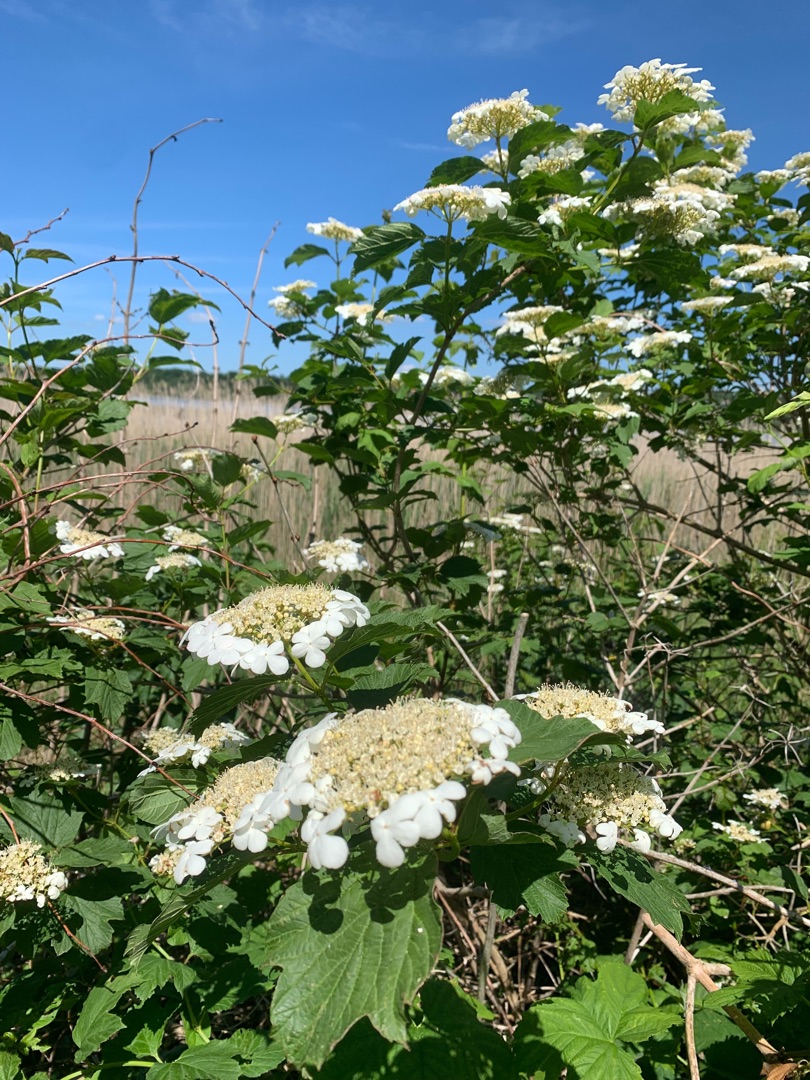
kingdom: Plantae
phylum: Tracheophyta
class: Magnoliopsida
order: Dipsacales
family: Viburnaceae
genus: Viburnum
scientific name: Viburnum opulus
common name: Kvalkved
